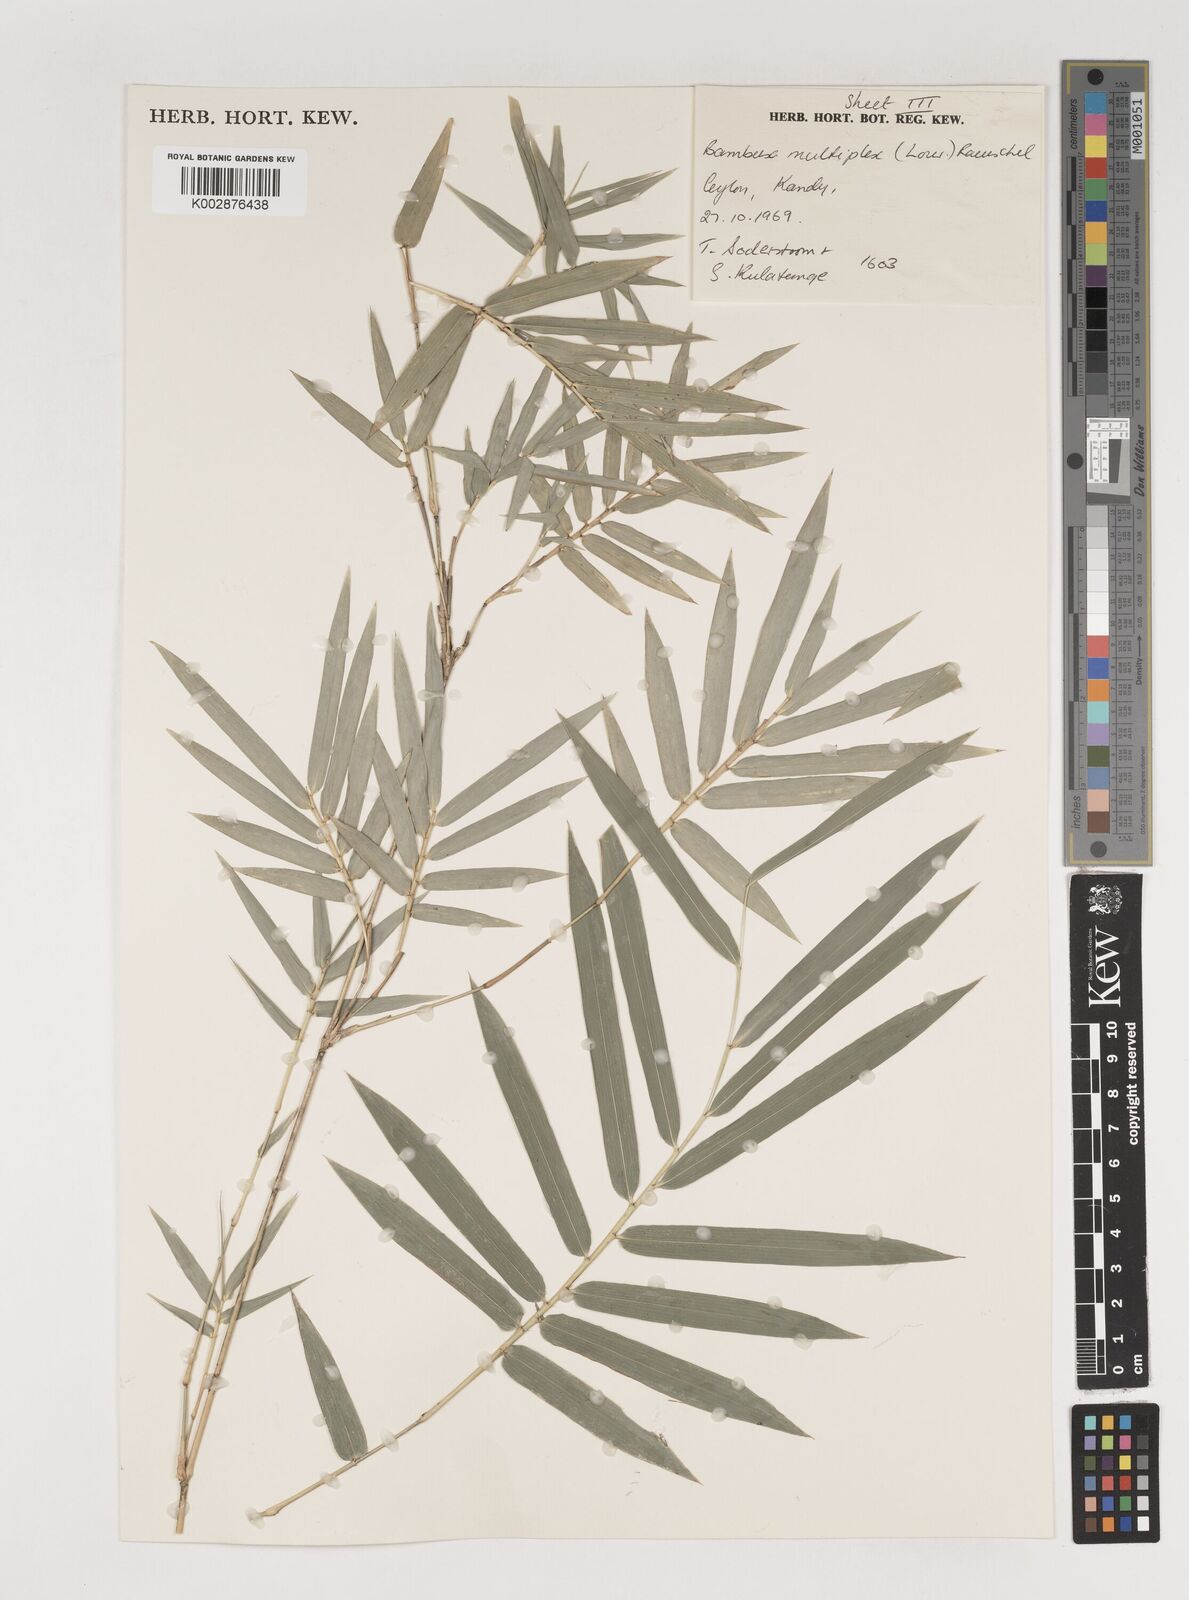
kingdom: Plantae
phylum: Tracheophyta
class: Liliopsida
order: Poales
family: Poaceae
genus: Bambusa
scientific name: Bambusa multiplex
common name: Hedge bamboo
